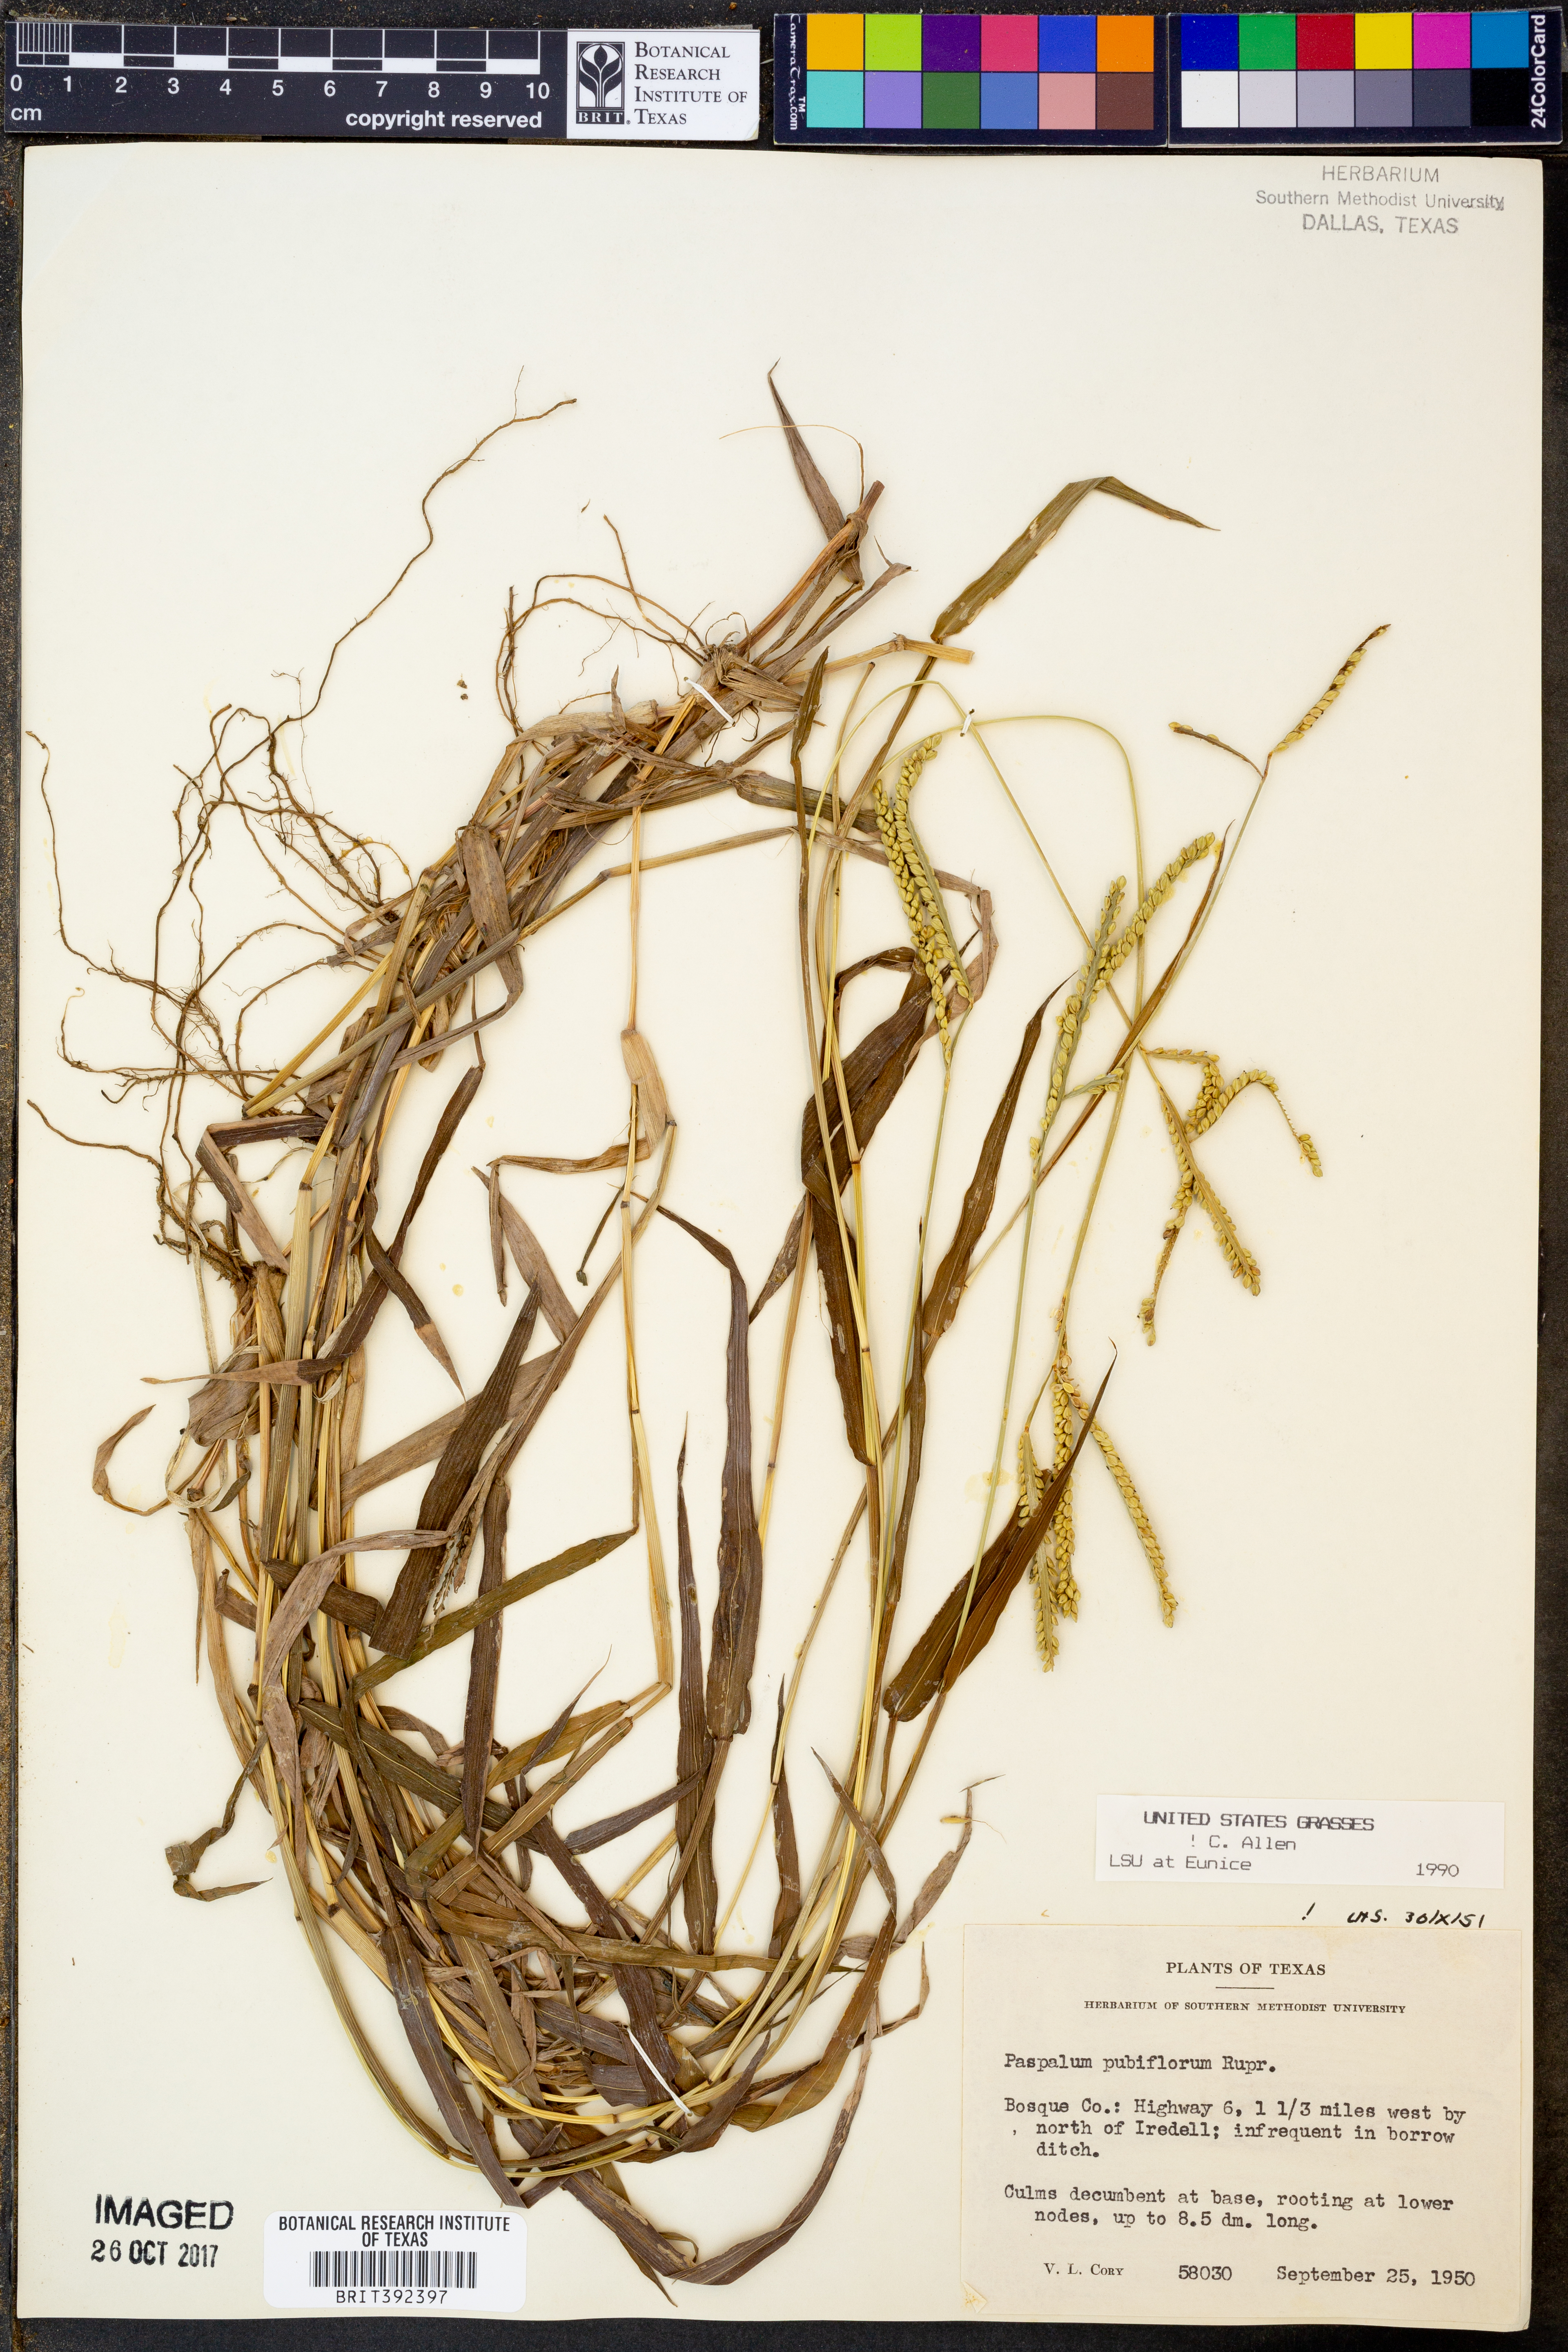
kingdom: Plantae
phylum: Tracheophyta
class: Liliopsida
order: Poales
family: Poaceae
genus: Paspalum
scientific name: Paspalum pubiflorum
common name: Hairy-seed paspalum
